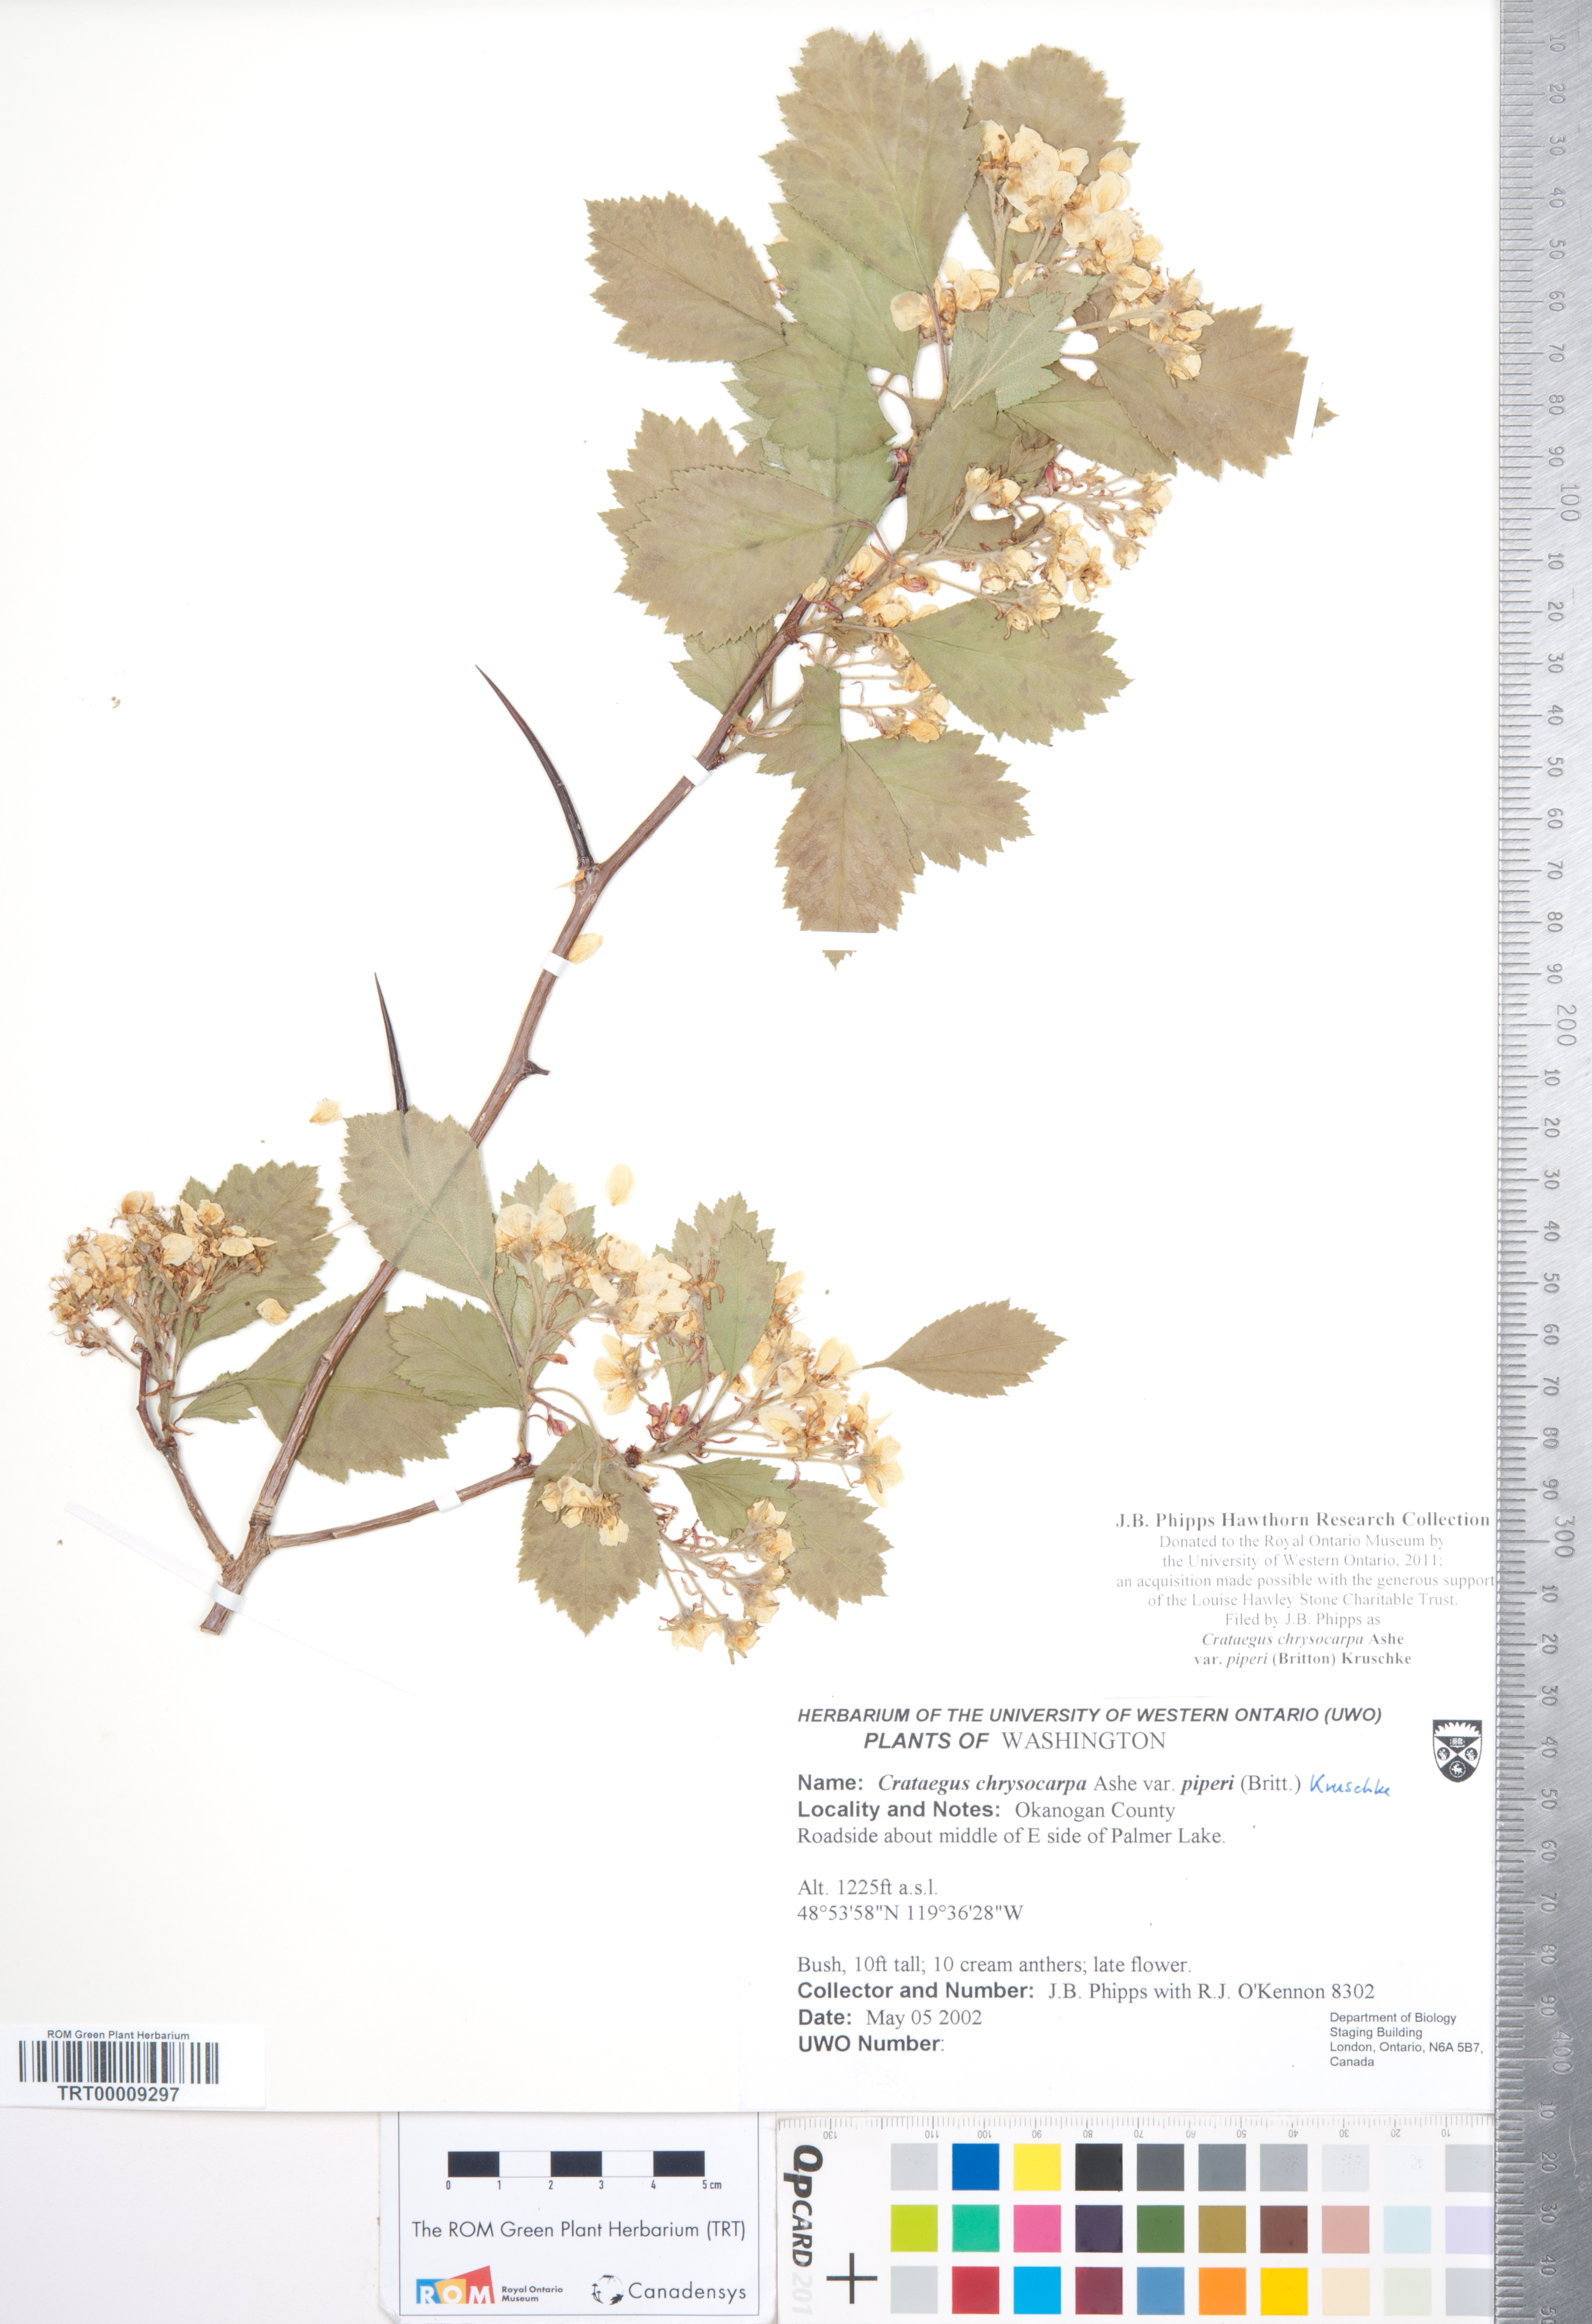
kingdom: Plantae
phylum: Tracheophyta
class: Magnoliopsida
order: Rosales
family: Rosaceae
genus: Crataegus
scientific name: Crataegus piperi
